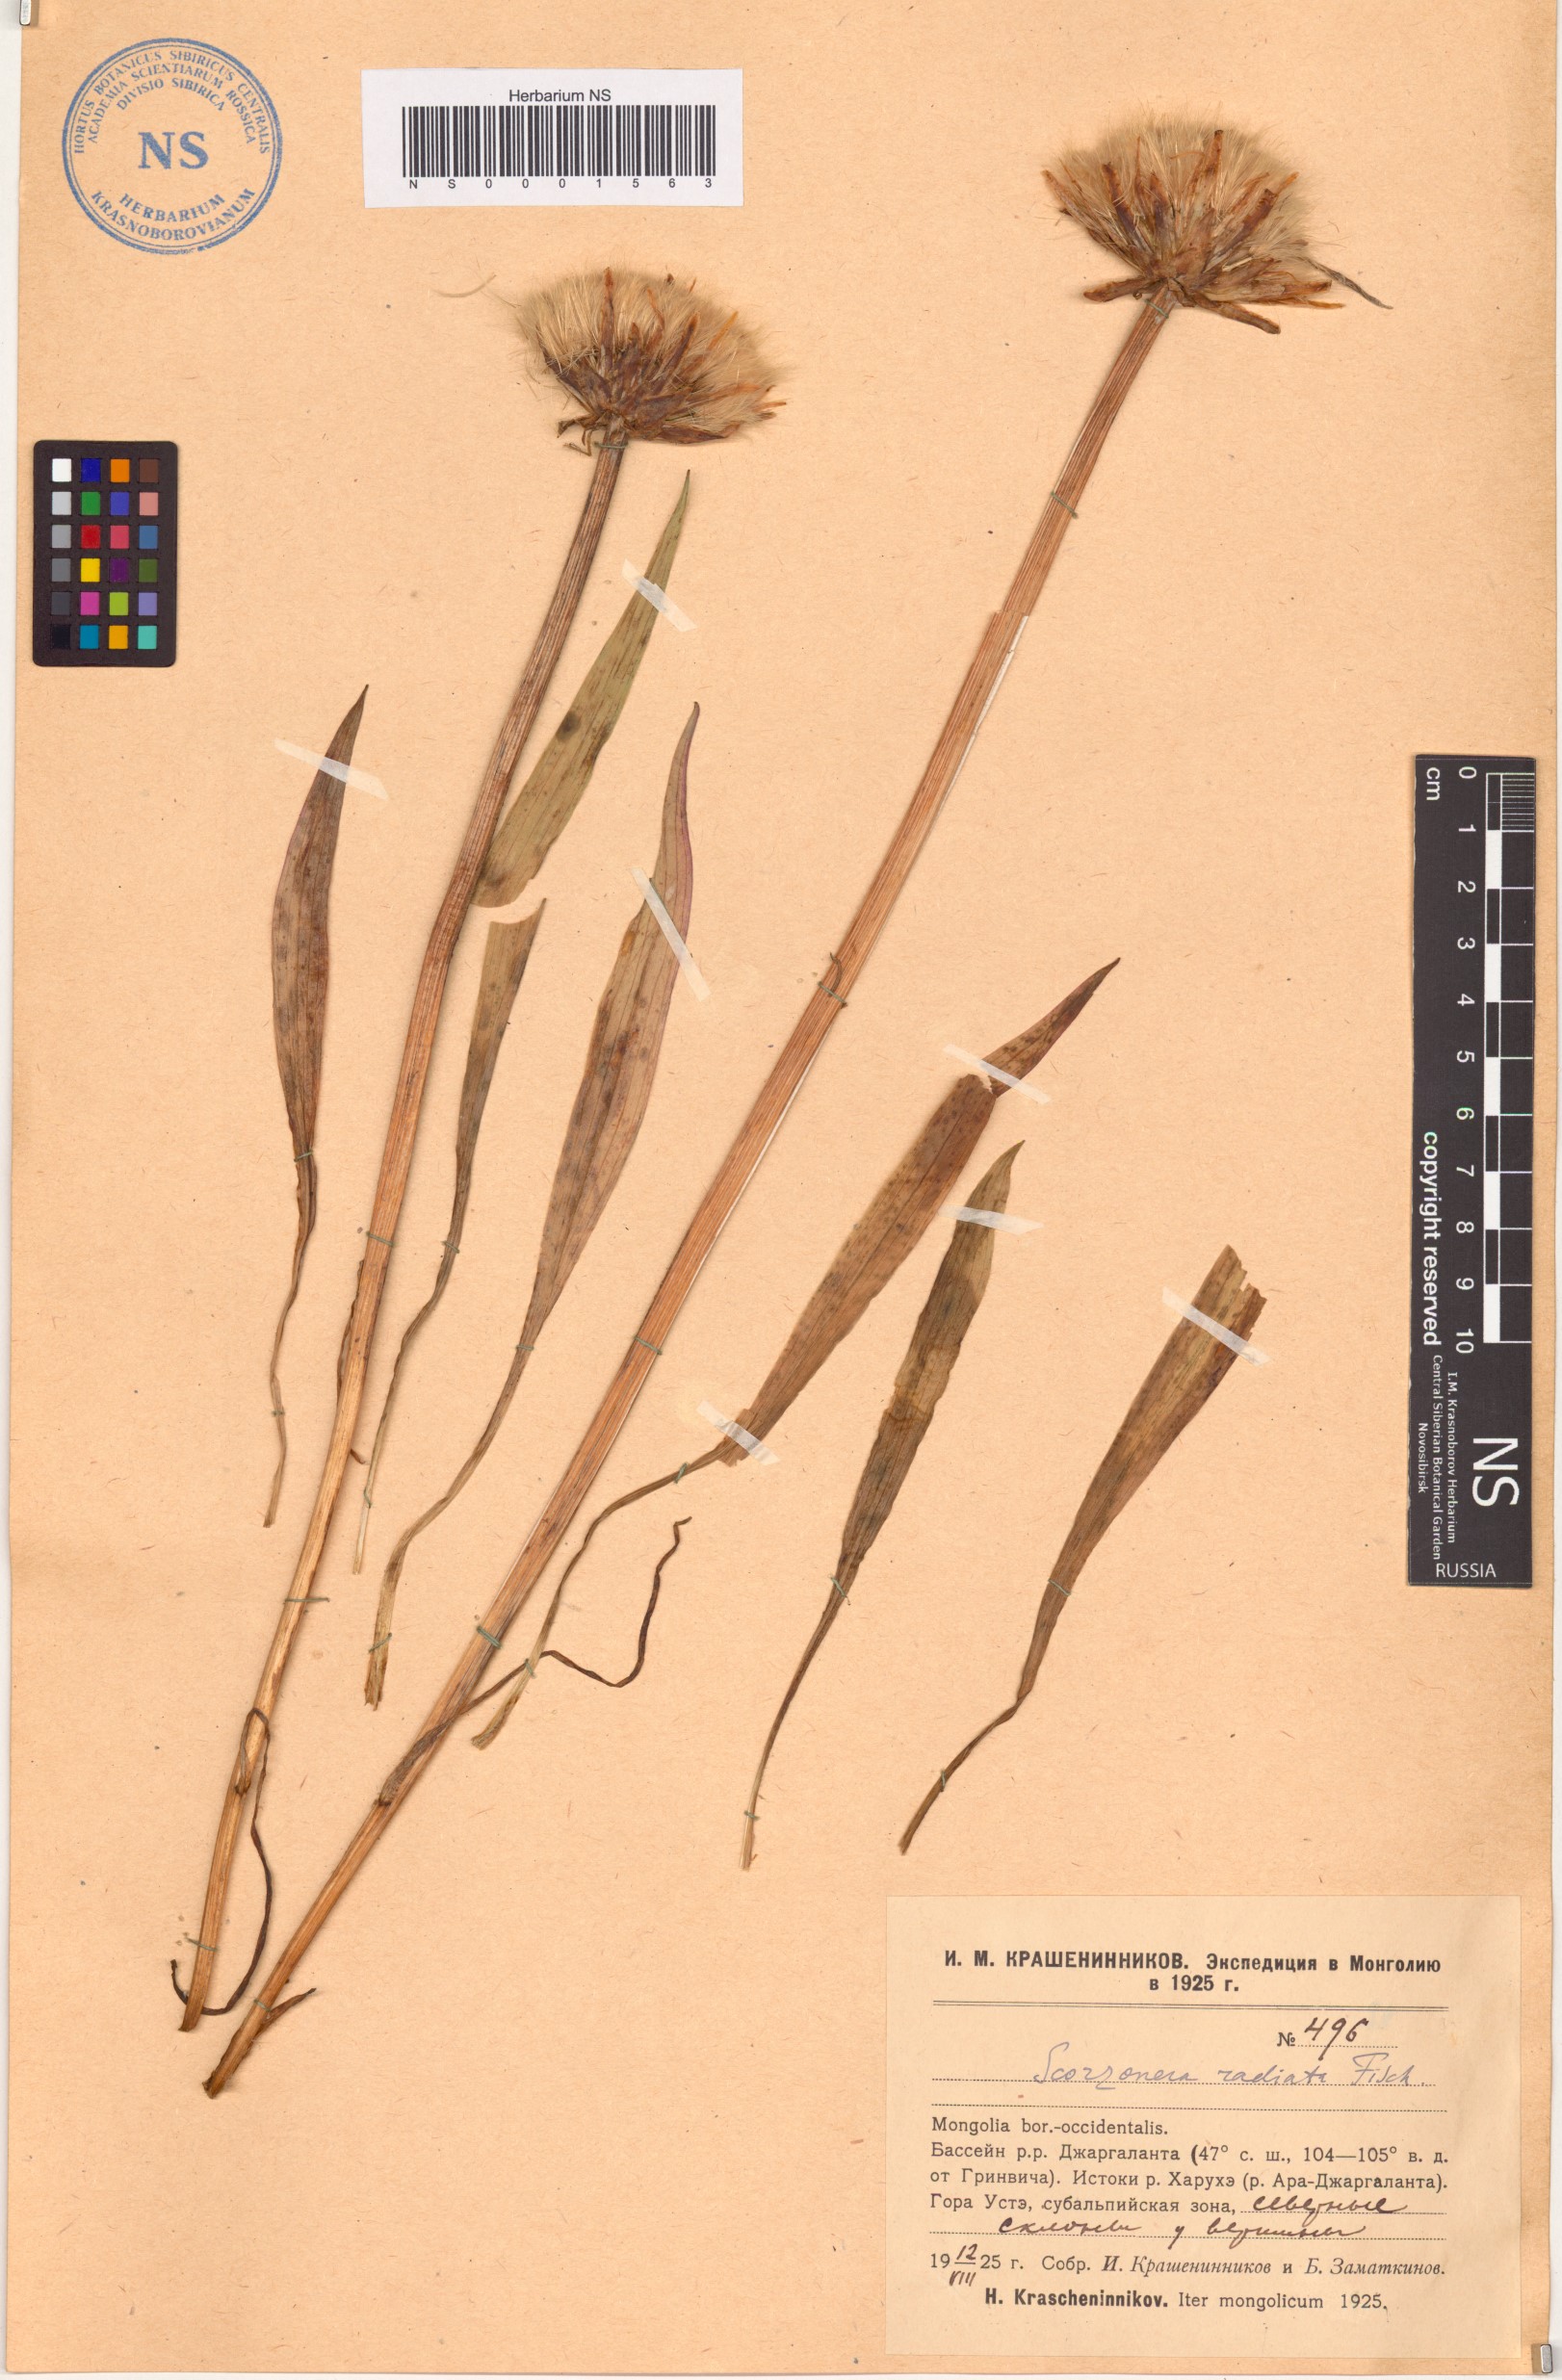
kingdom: Plantae
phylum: Tracheophyta
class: Magnoliopsida
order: Asterales
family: Asteraceae
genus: Scorzonera
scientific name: Scorzonera radiata
